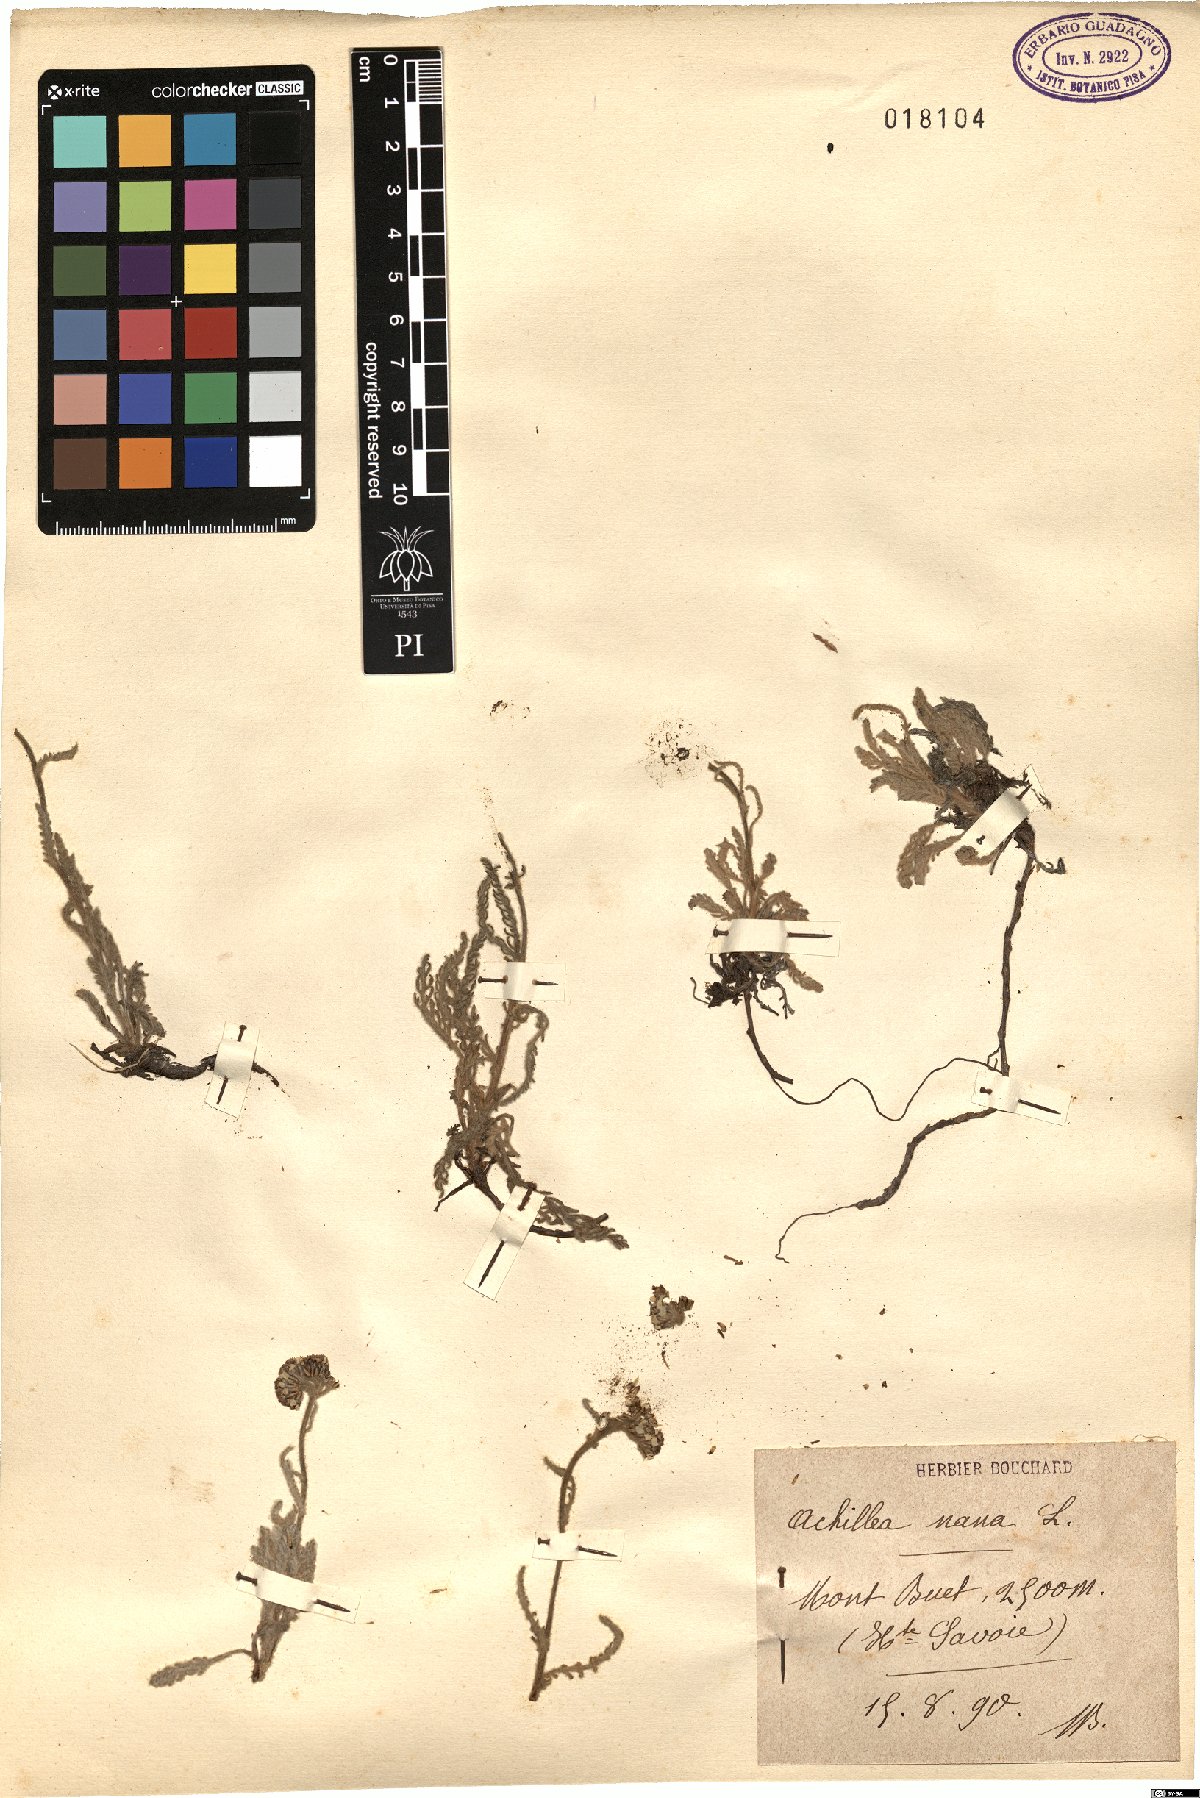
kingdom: Plantae
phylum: Tracheophyta
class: Magnoliopsida
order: Asterales
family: Asteraceae
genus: Achillea
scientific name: Achillea nana
